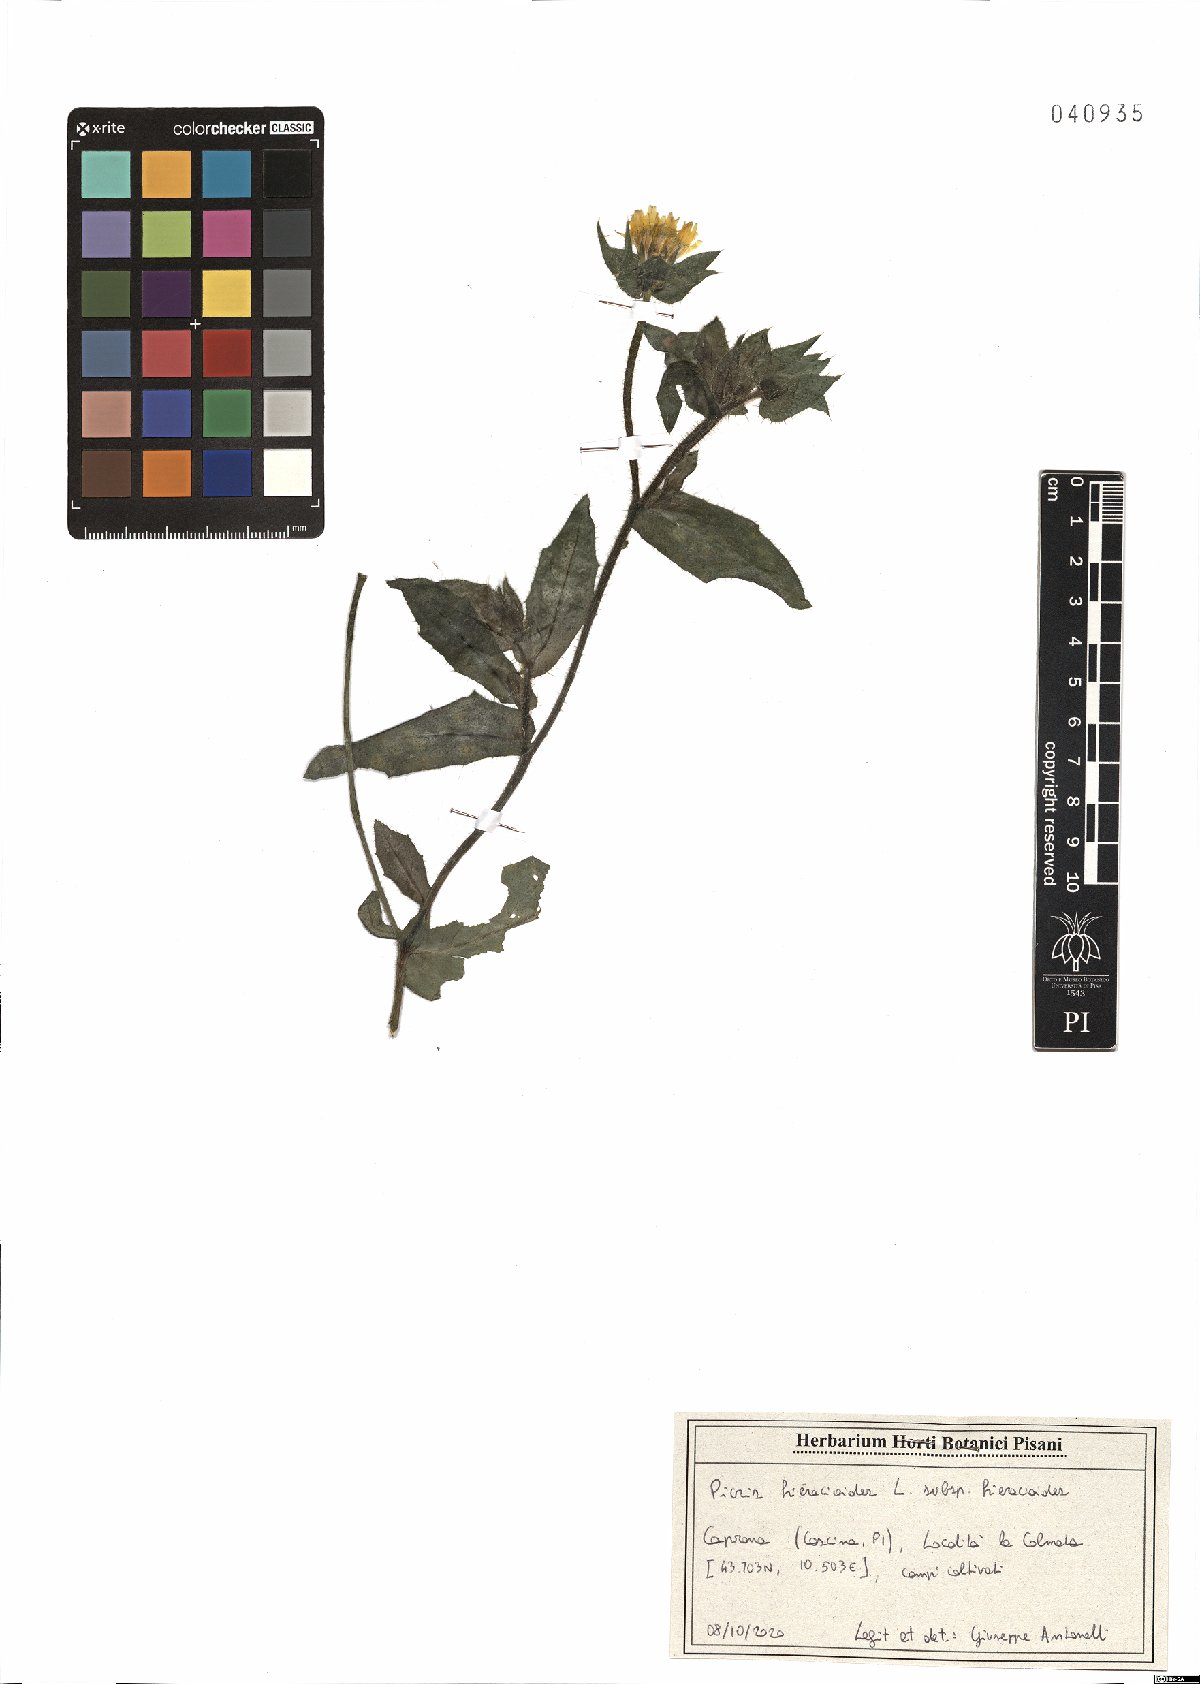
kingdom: Plantae
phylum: Tracheophyta
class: Magnoliopsida
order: Asterales
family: Asteraceae
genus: Picris
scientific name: Picris hieracioides
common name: Hawkweed oxtongue
